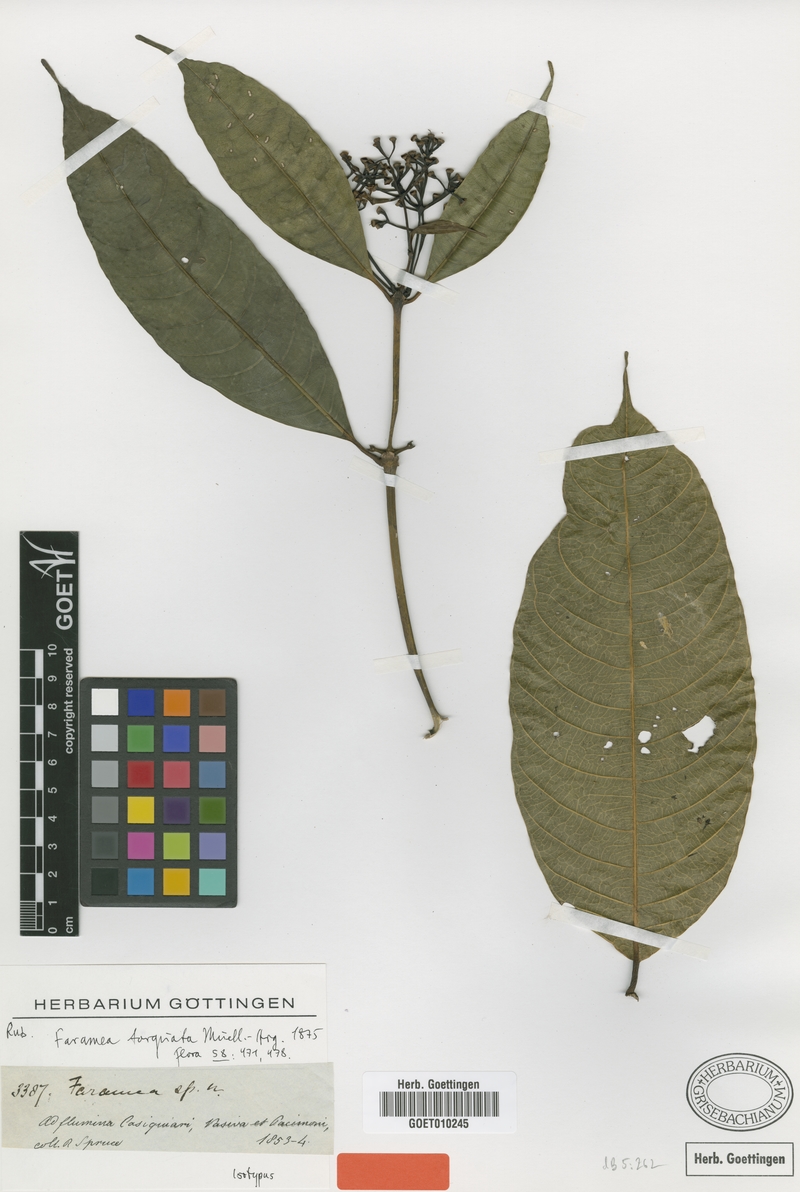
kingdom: Plantae
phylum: Tracheophyta
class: Magnoliopsida
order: Gentianales
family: Rubiaceae
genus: Faramea
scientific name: Faramea torquata
